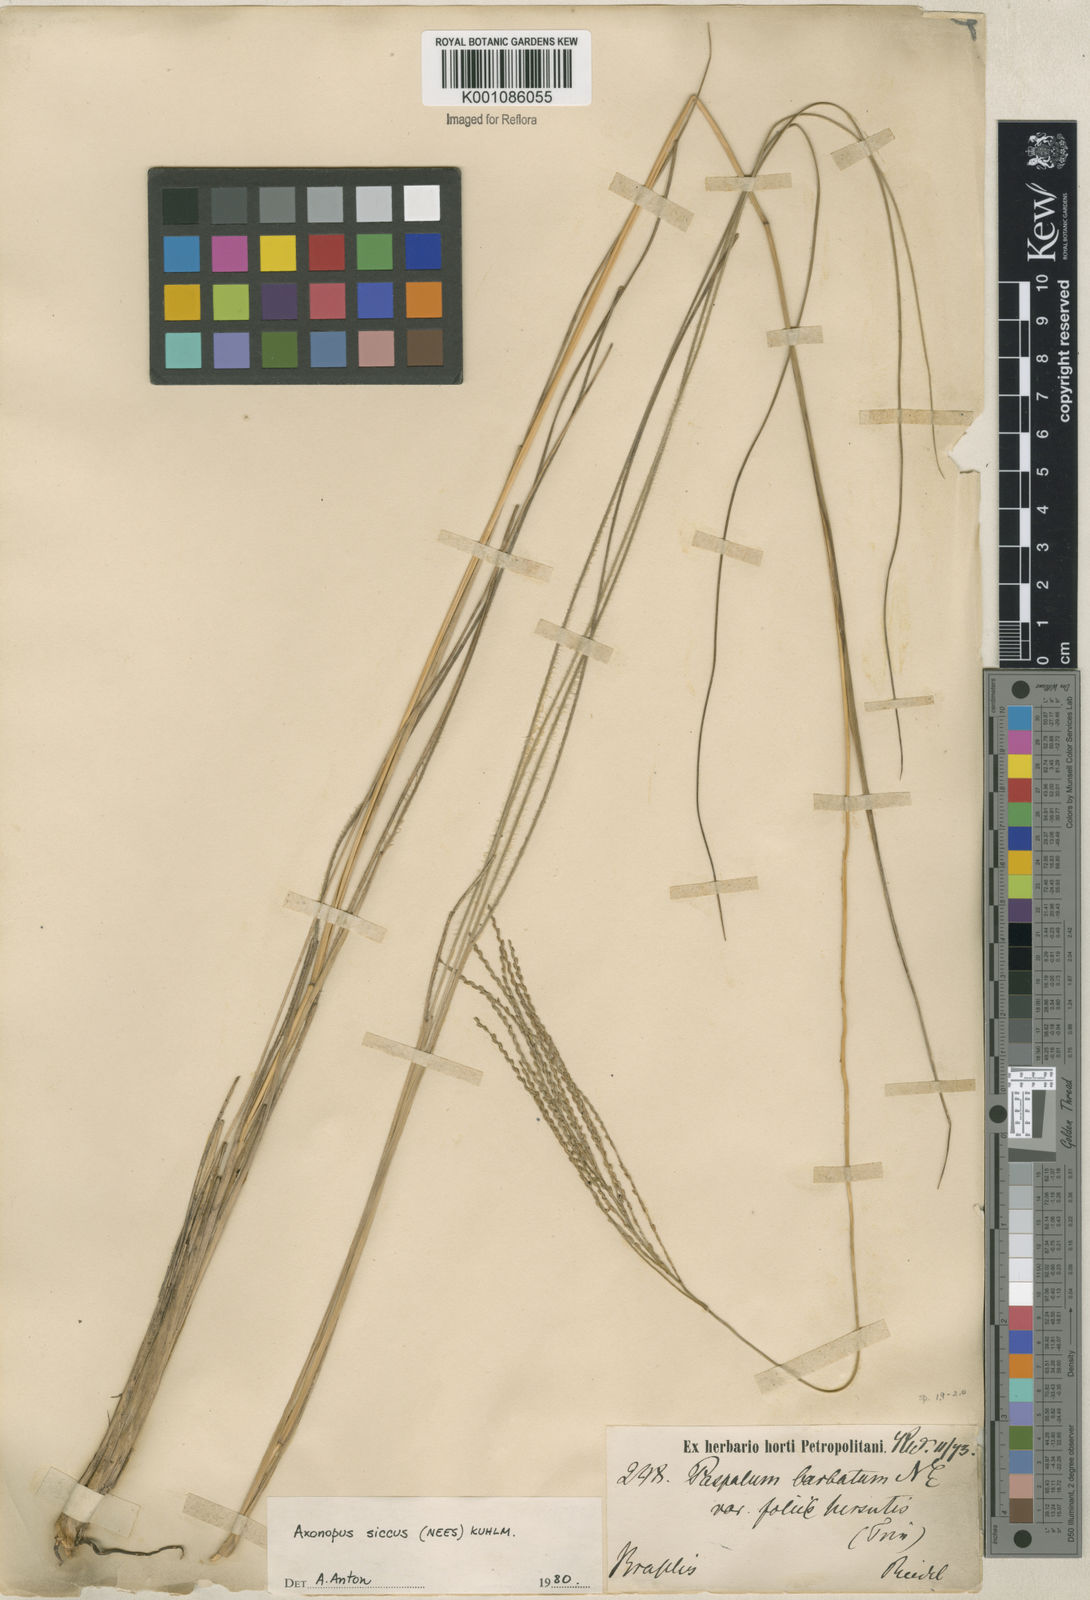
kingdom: Plantae
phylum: Tracheophyta
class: Liliopsida
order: Poales
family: Poaceae
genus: Axonopus
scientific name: Axonopus siccus
